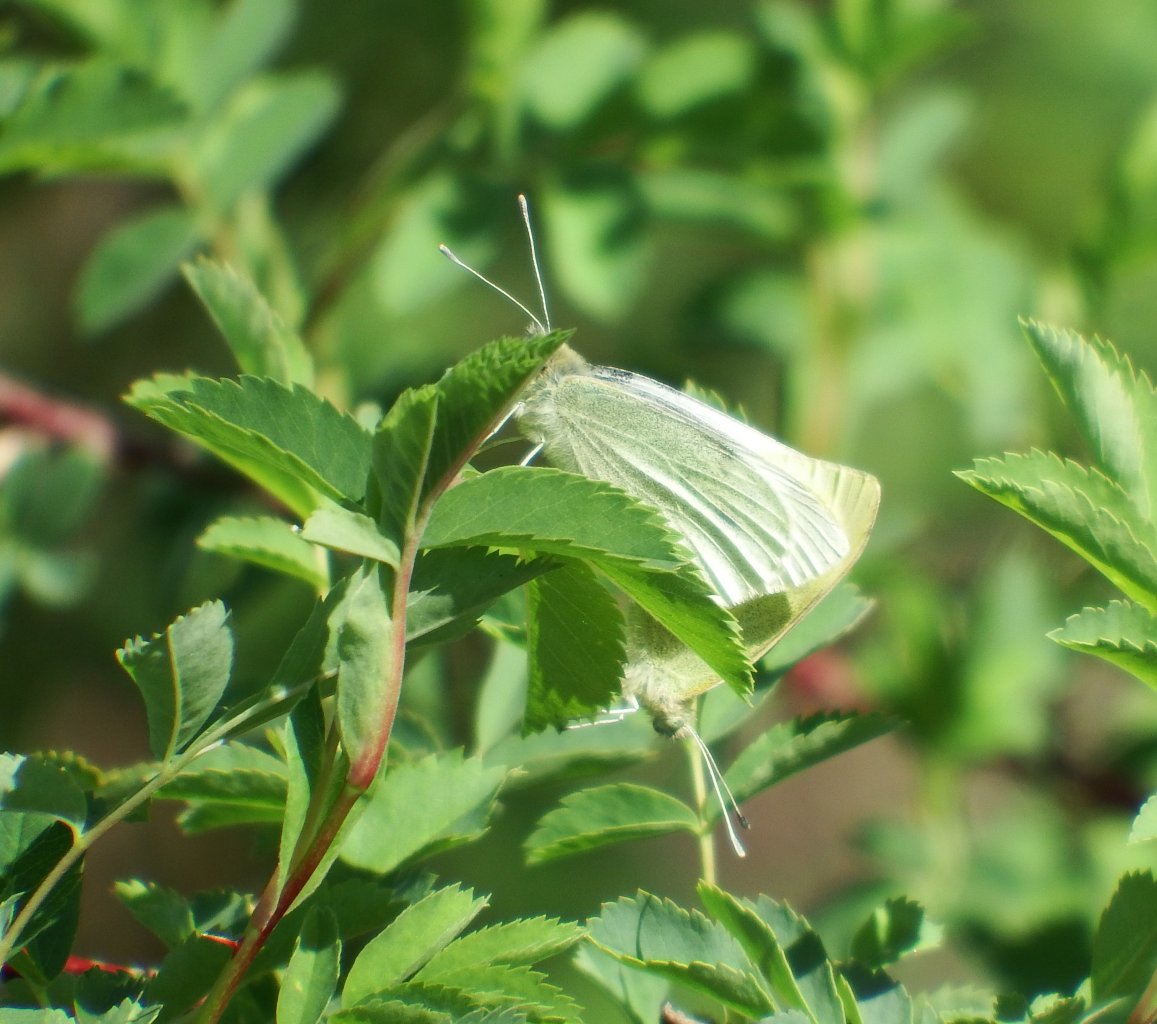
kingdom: Animalia
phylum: Arthropoda
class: Insecta
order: Lepidoptera
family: Pieridae
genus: Pieris
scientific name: Pieris rapae
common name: Cabbage White
